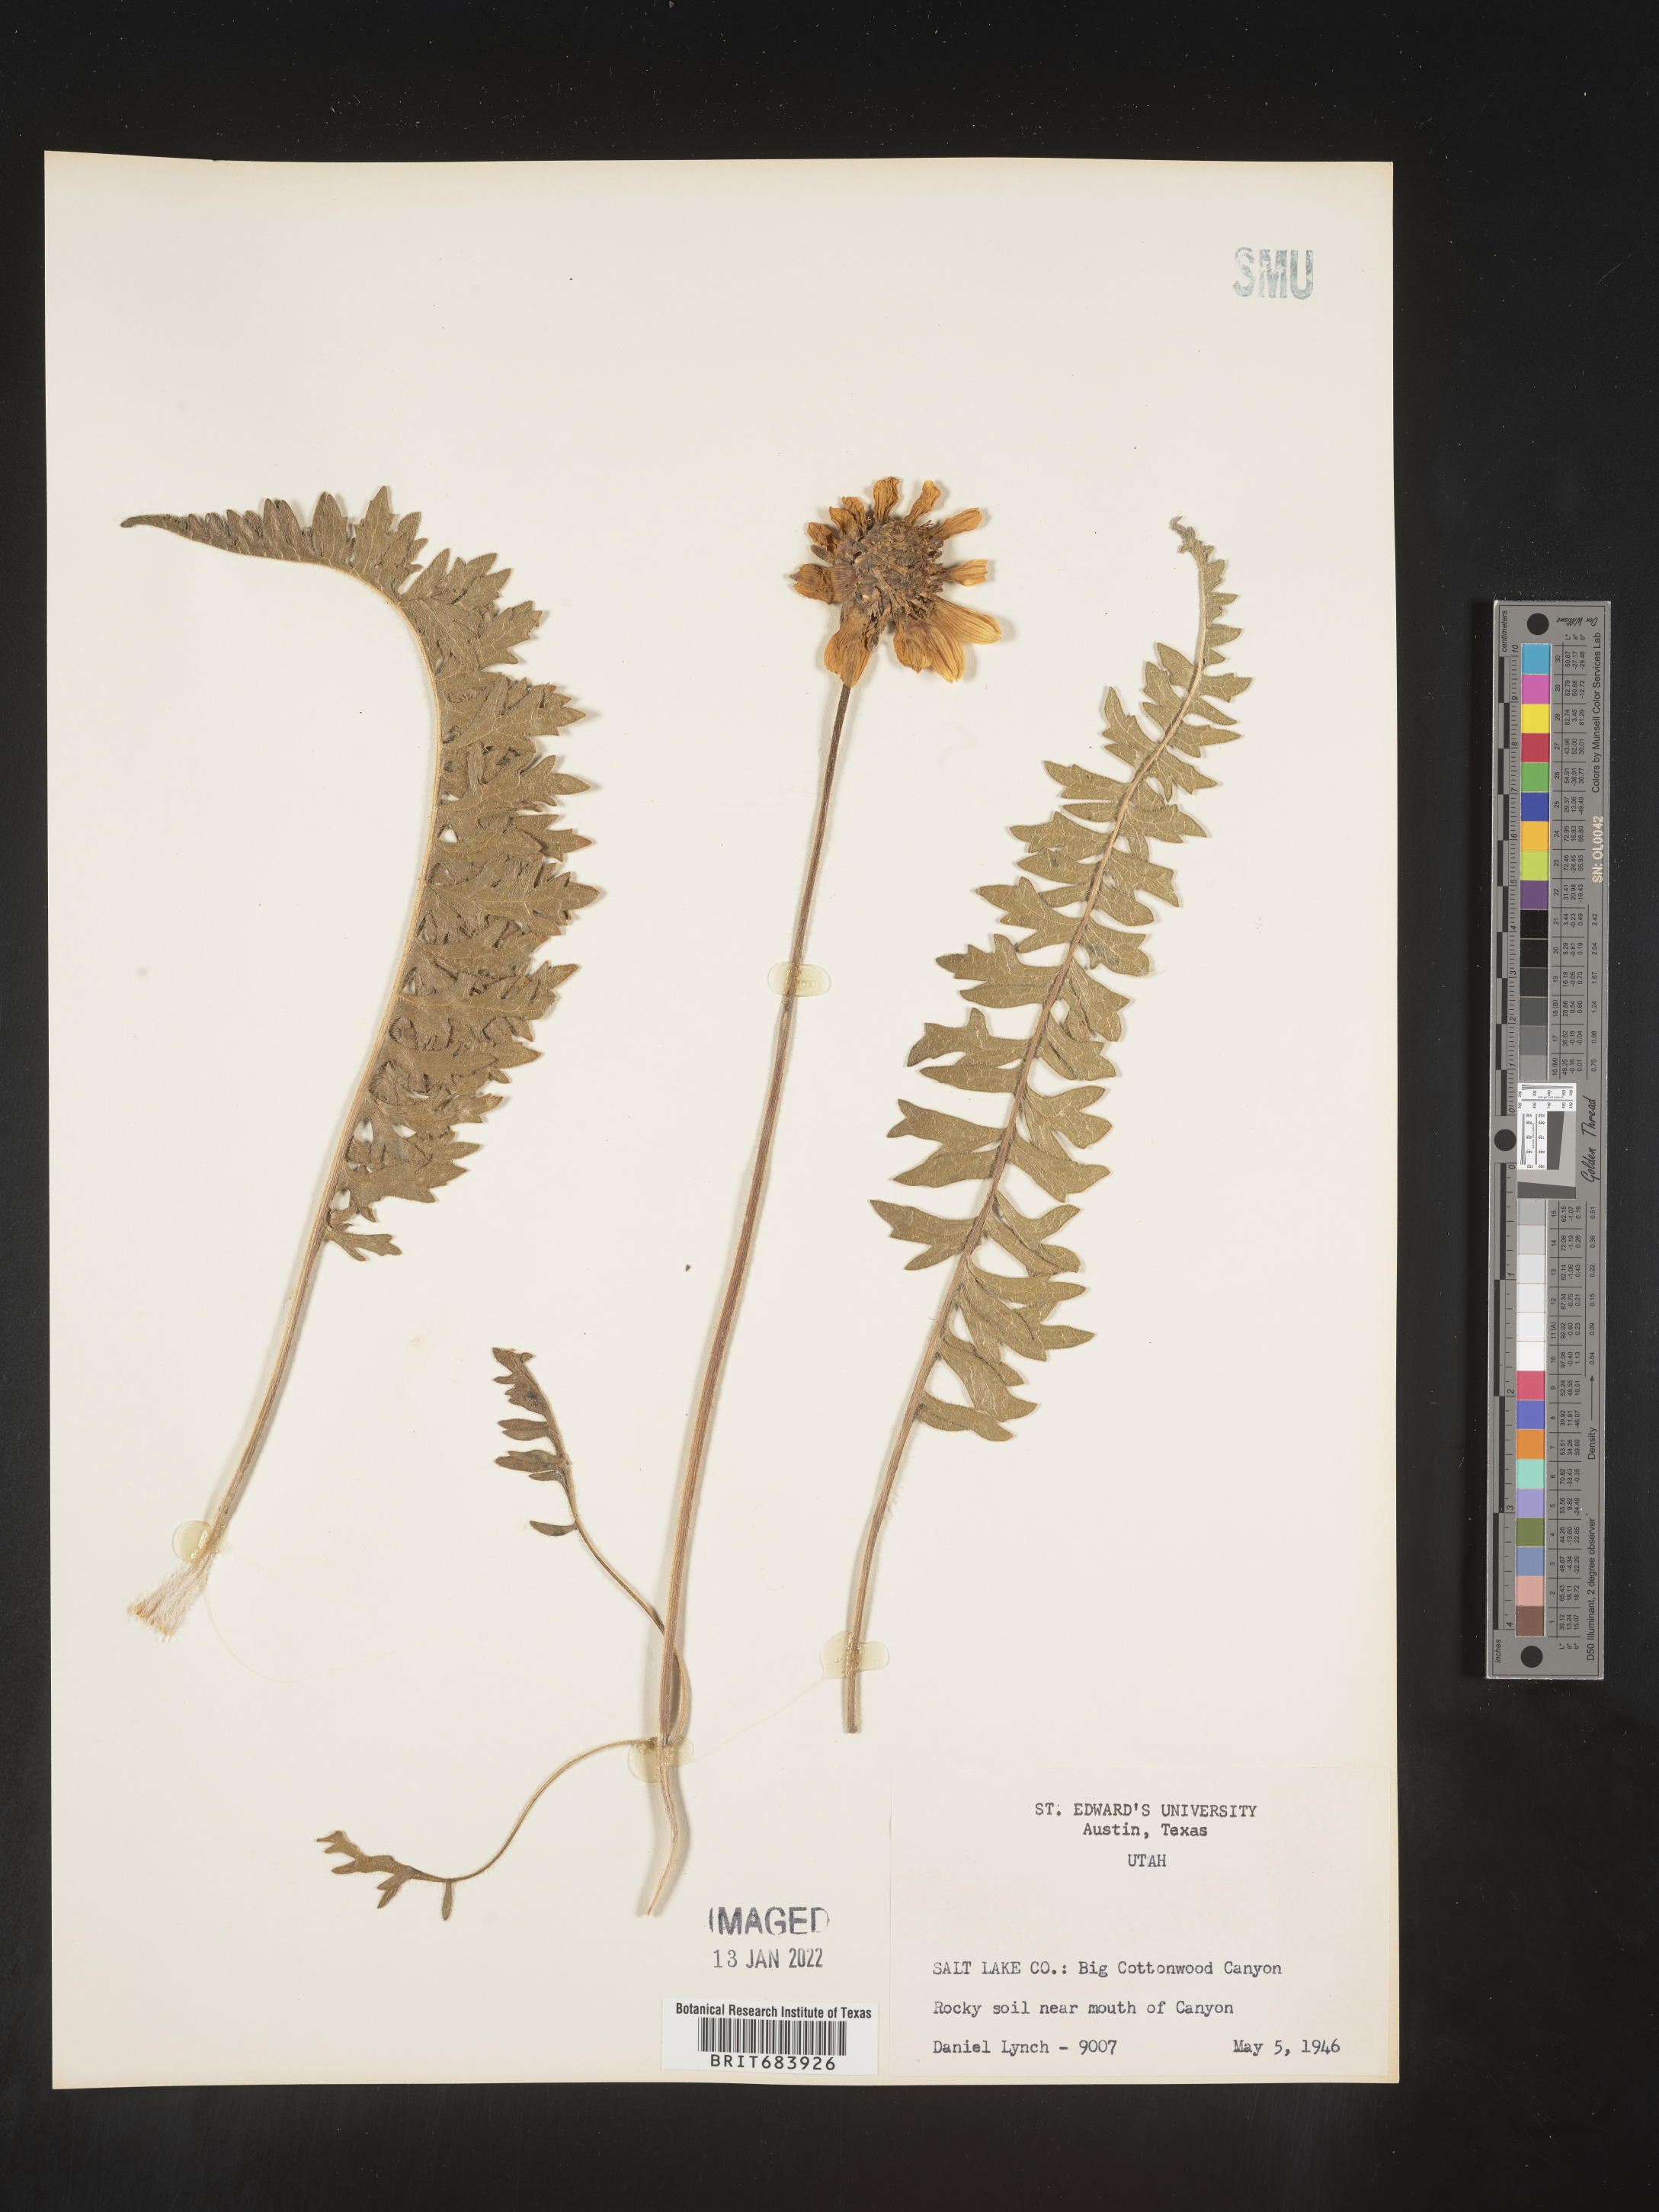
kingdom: Plantae
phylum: Tracheophyta
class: Magnoliopsida
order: Asterales
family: Asteraceae
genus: Balsamorhiza
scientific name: Balsamorhiza serrata
